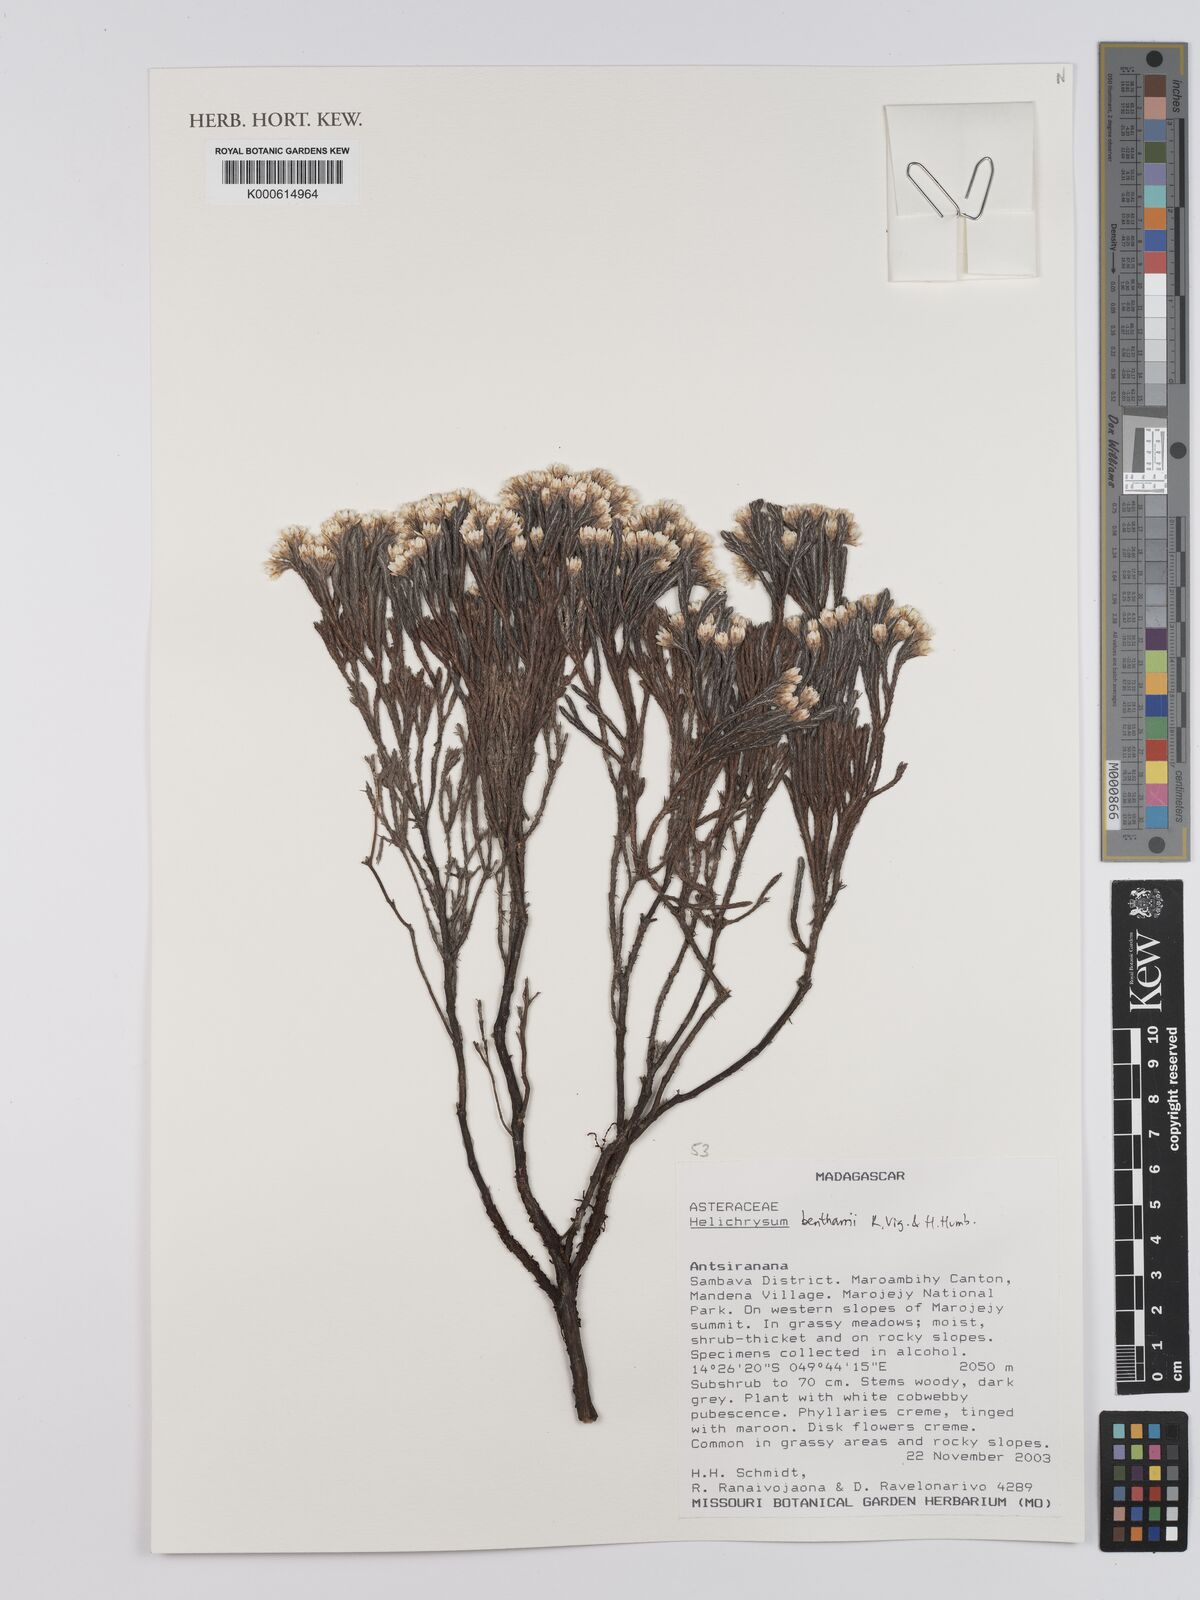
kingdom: Plantae
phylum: Tracheophyta
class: Magnoliopsida
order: Asterales
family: Asteraceae
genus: Helichrysum
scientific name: Helichrysum benthamii
